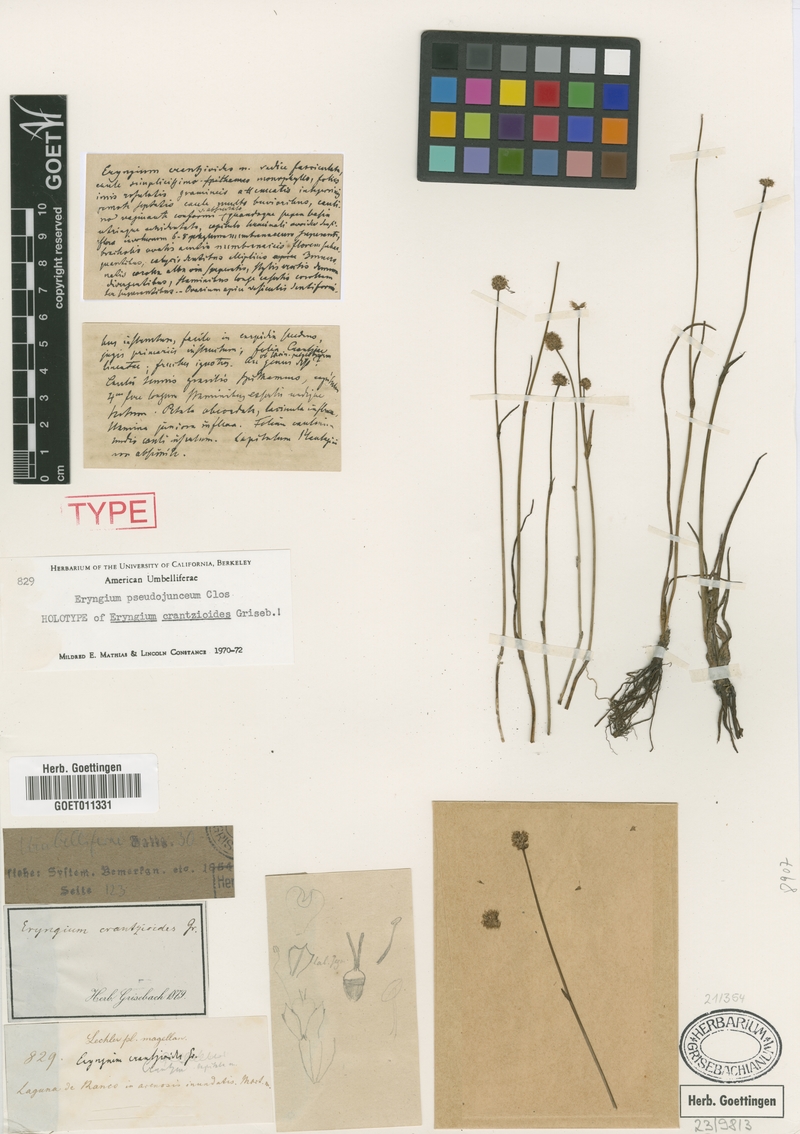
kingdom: Plantae
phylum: Tracheophyta
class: Magnoliopsida
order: Apiales
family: Apiaceae
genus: Eryngium
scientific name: Eryngium pseudojunceum
